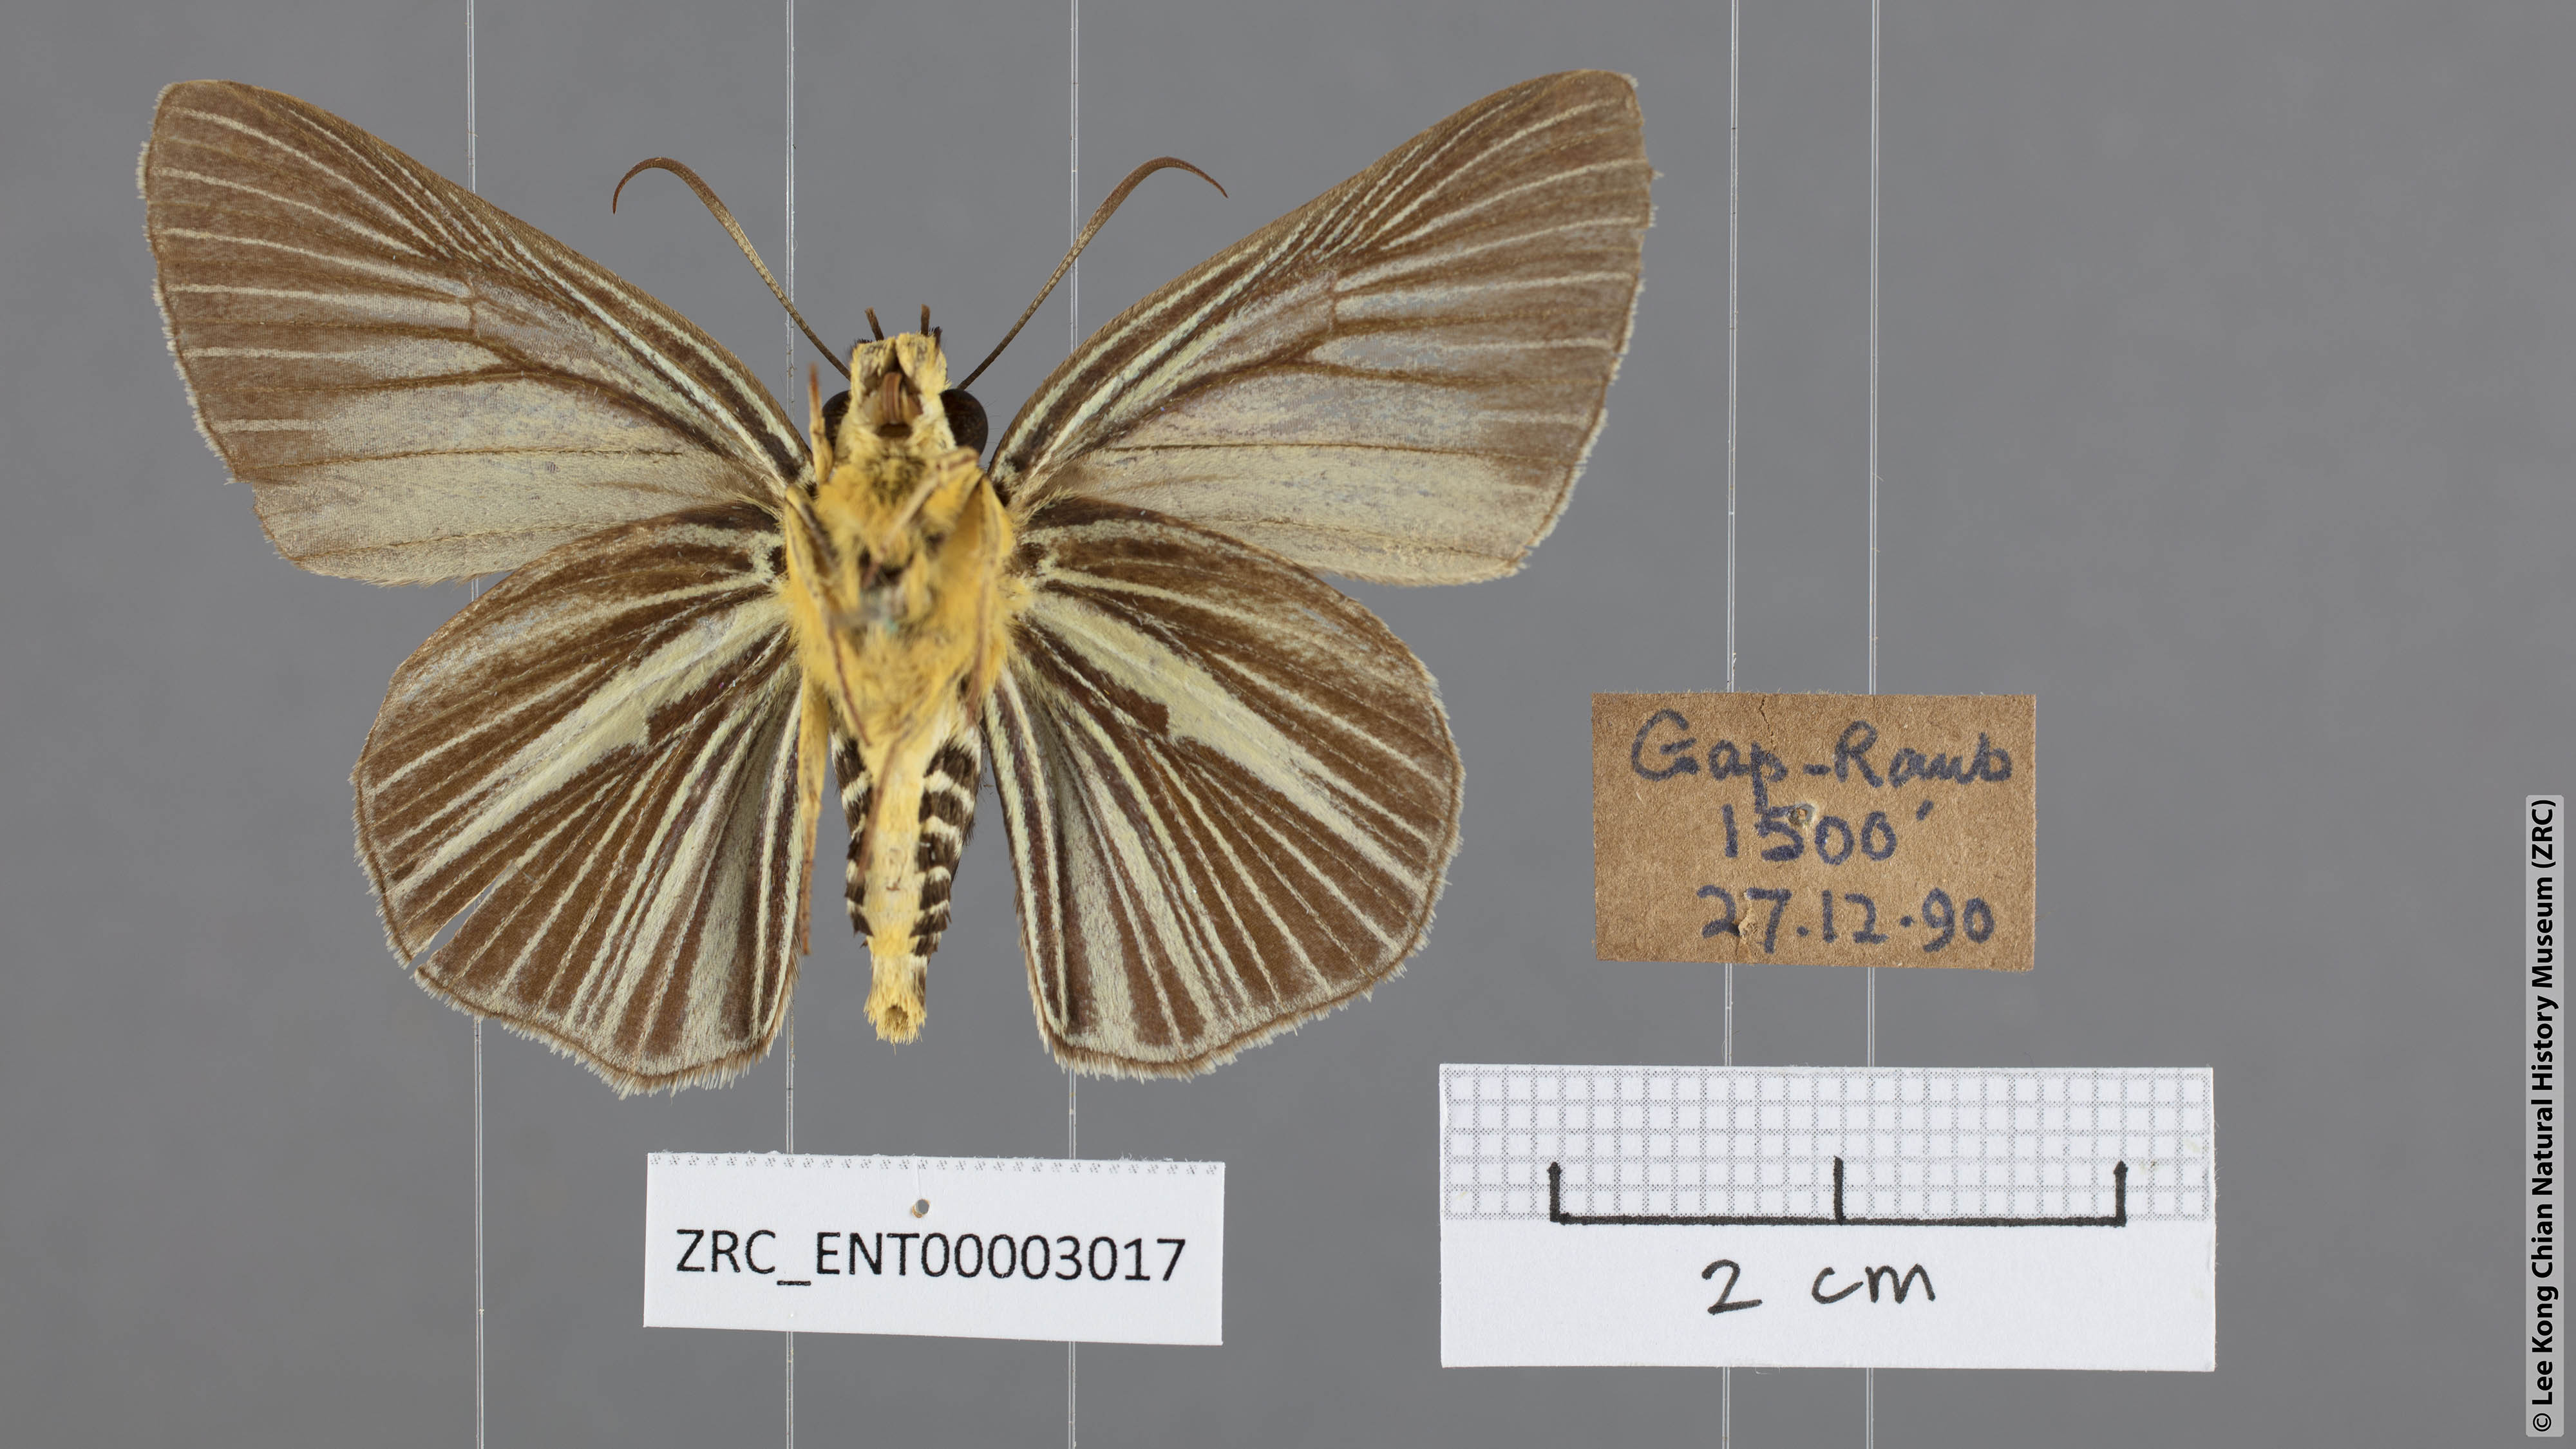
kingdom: Animalia
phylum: Arthropoda
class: Insecta
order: Lepidoptera
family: Hesperiidae
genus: Bibasis
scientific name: Bibasis gomata
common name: Pale green awlet
